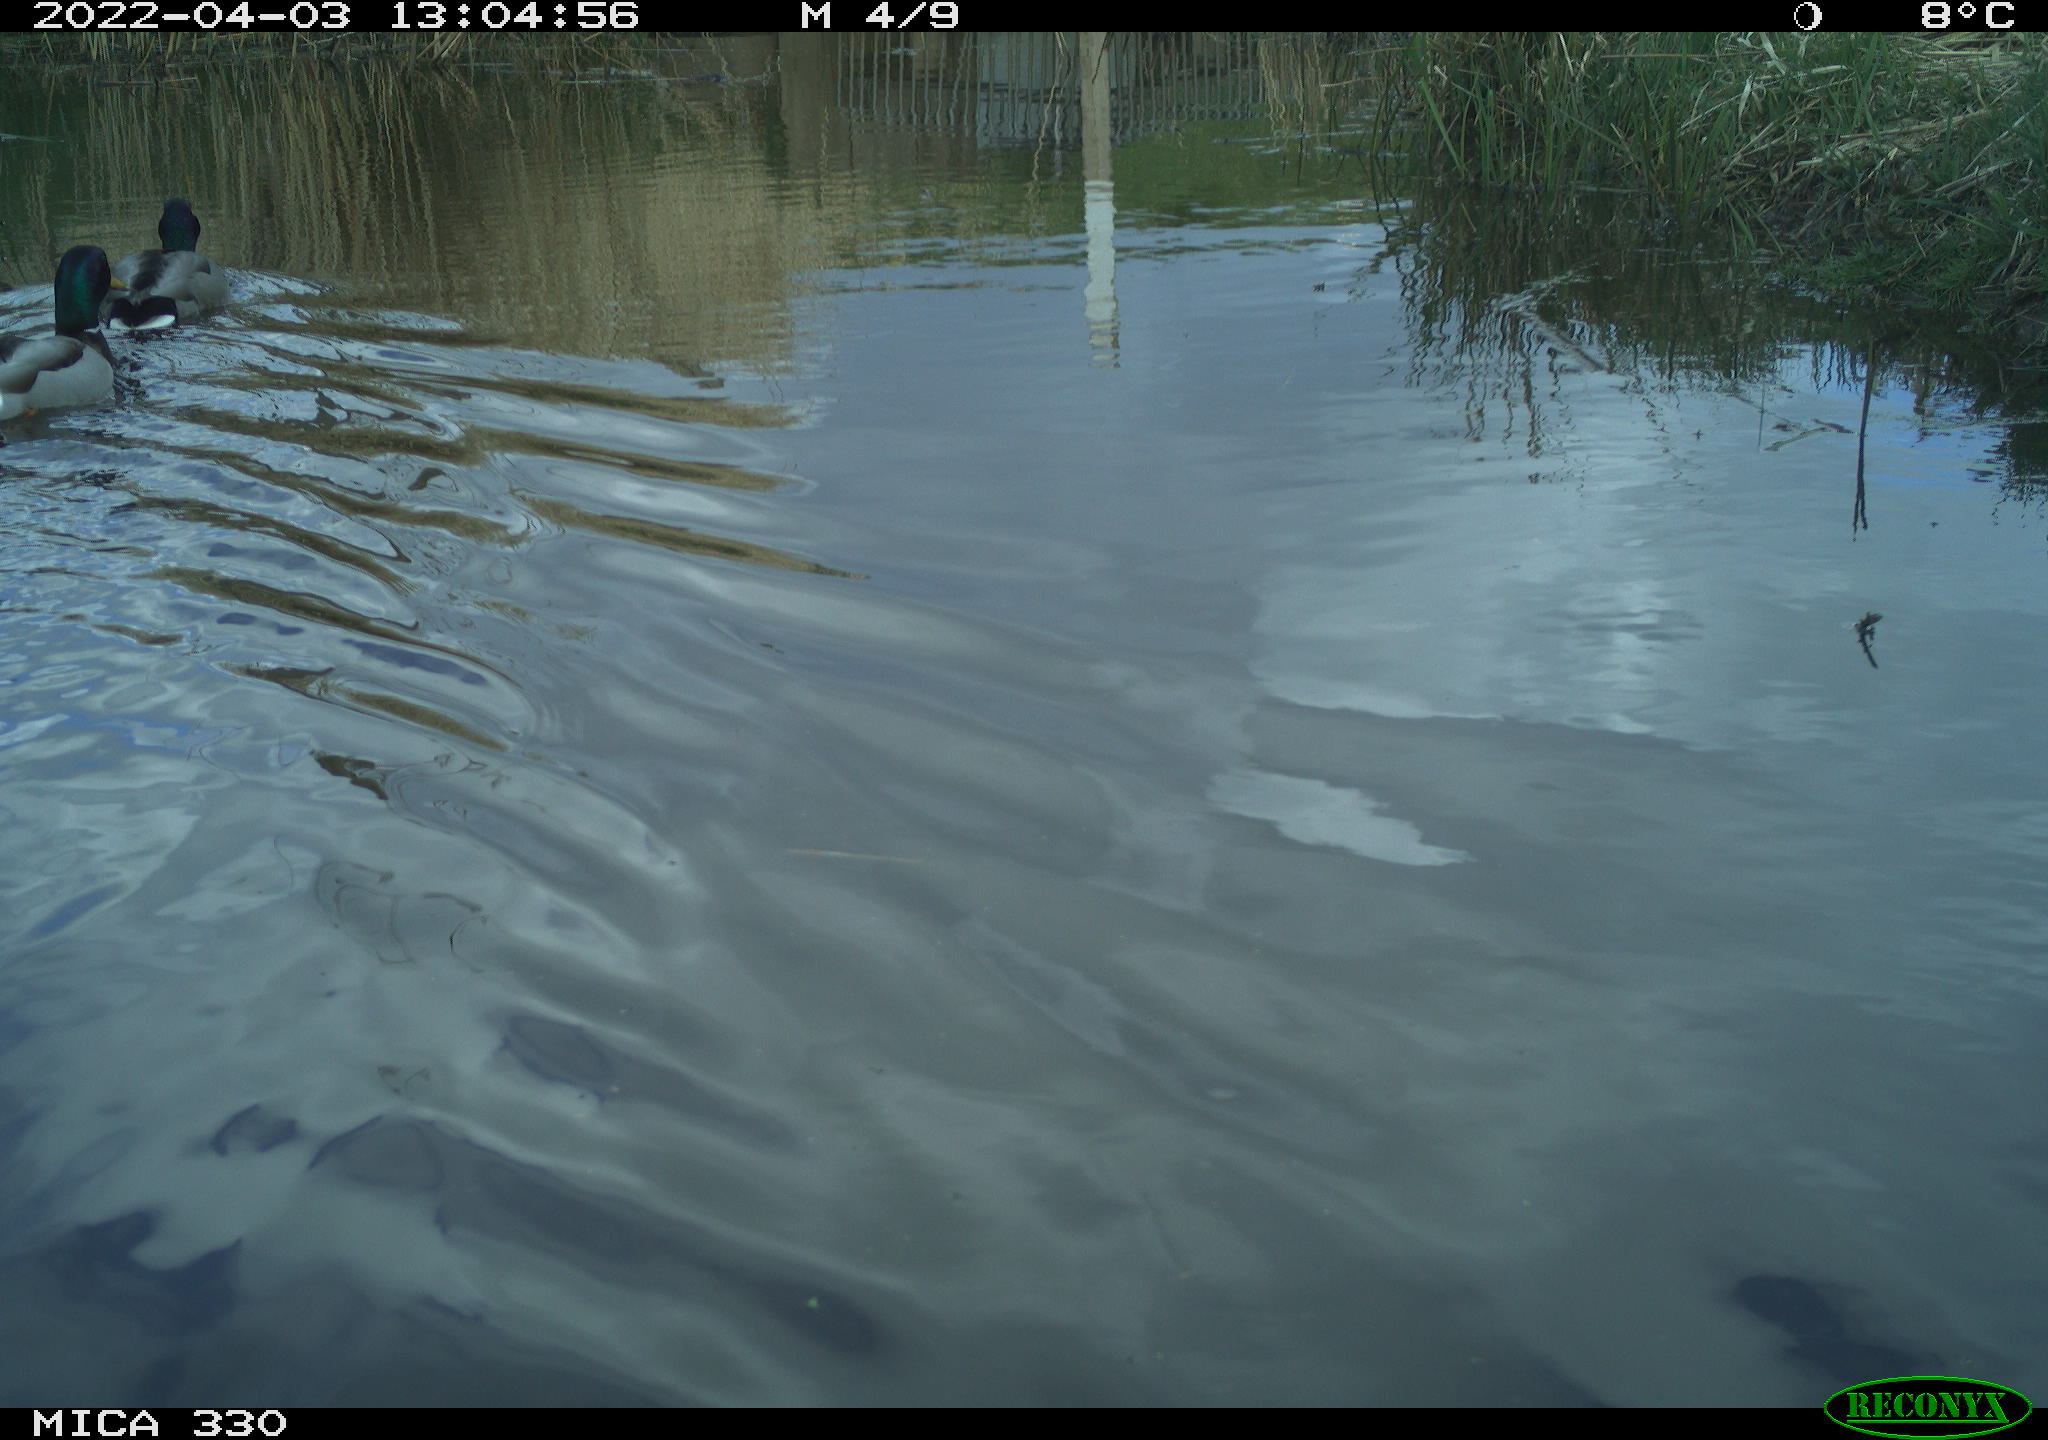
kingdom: Animalia
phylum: Chordata
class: Aves
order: Anseriformes
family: Anatidae
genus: Anas
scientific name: Anas platyrhynchos
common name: Mallard
